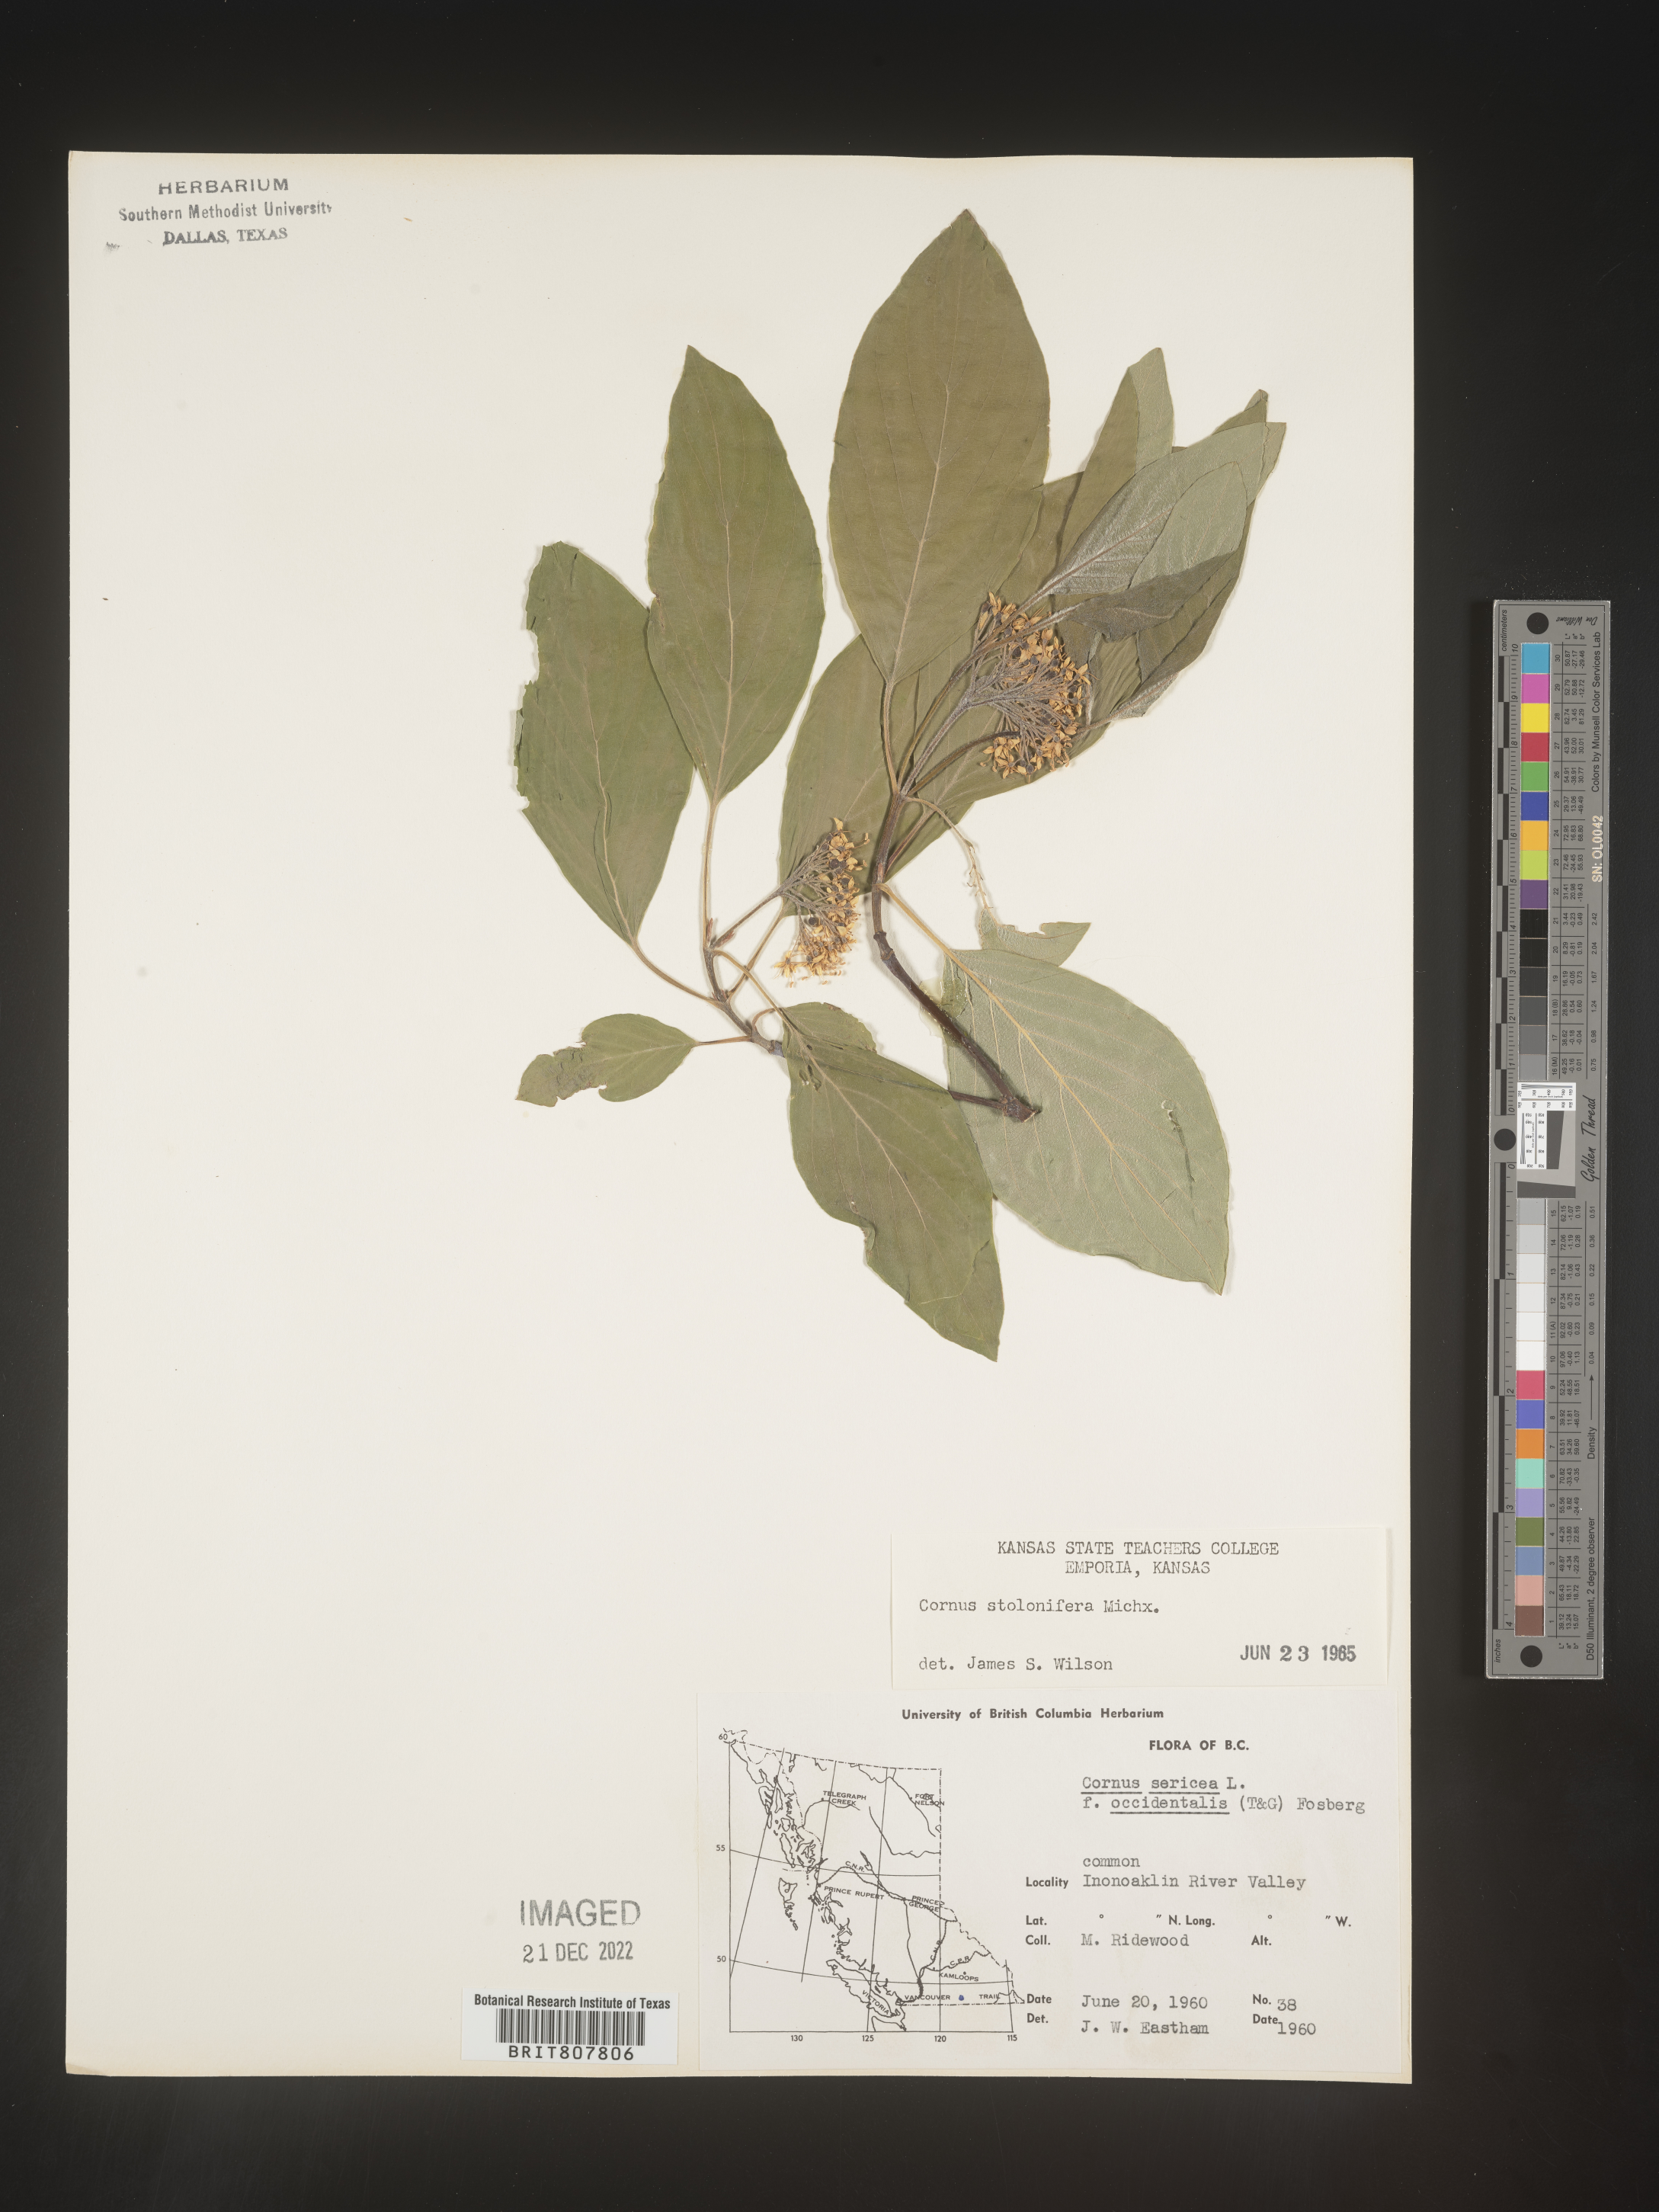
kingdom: Plantae
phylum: Tracheophyta
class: Magnoliopsida
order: Cornales
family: Cornaceae
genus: Cornus
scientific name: Cornus sericea
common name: Red-osier dogwood
